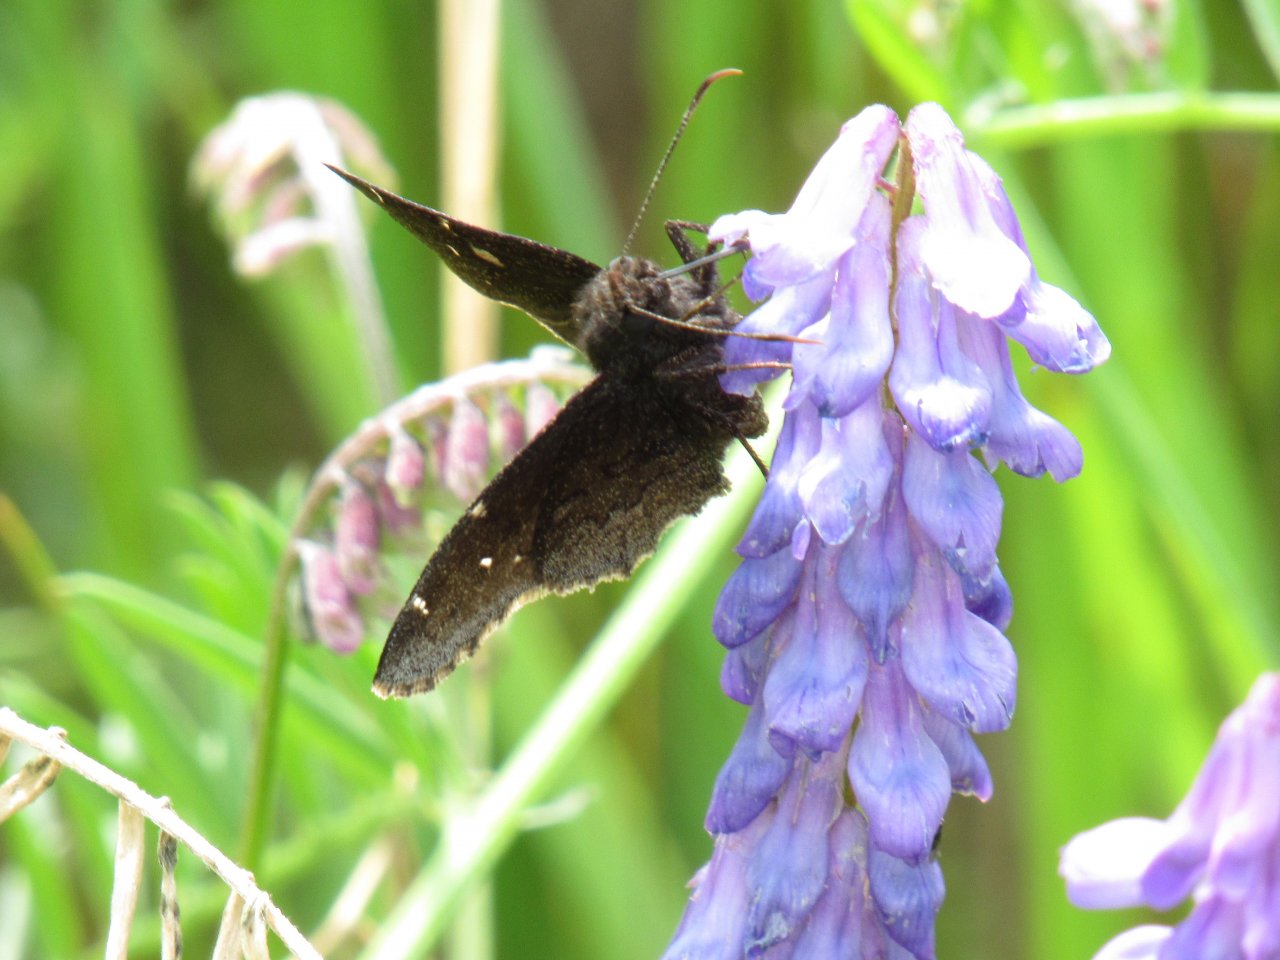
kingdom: Animalia
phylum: Arthropoda
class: Insecta
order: Lepidoptera
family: Hesperiidae
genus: Autochton
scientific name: Autochton
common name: Northern Cloudywing
